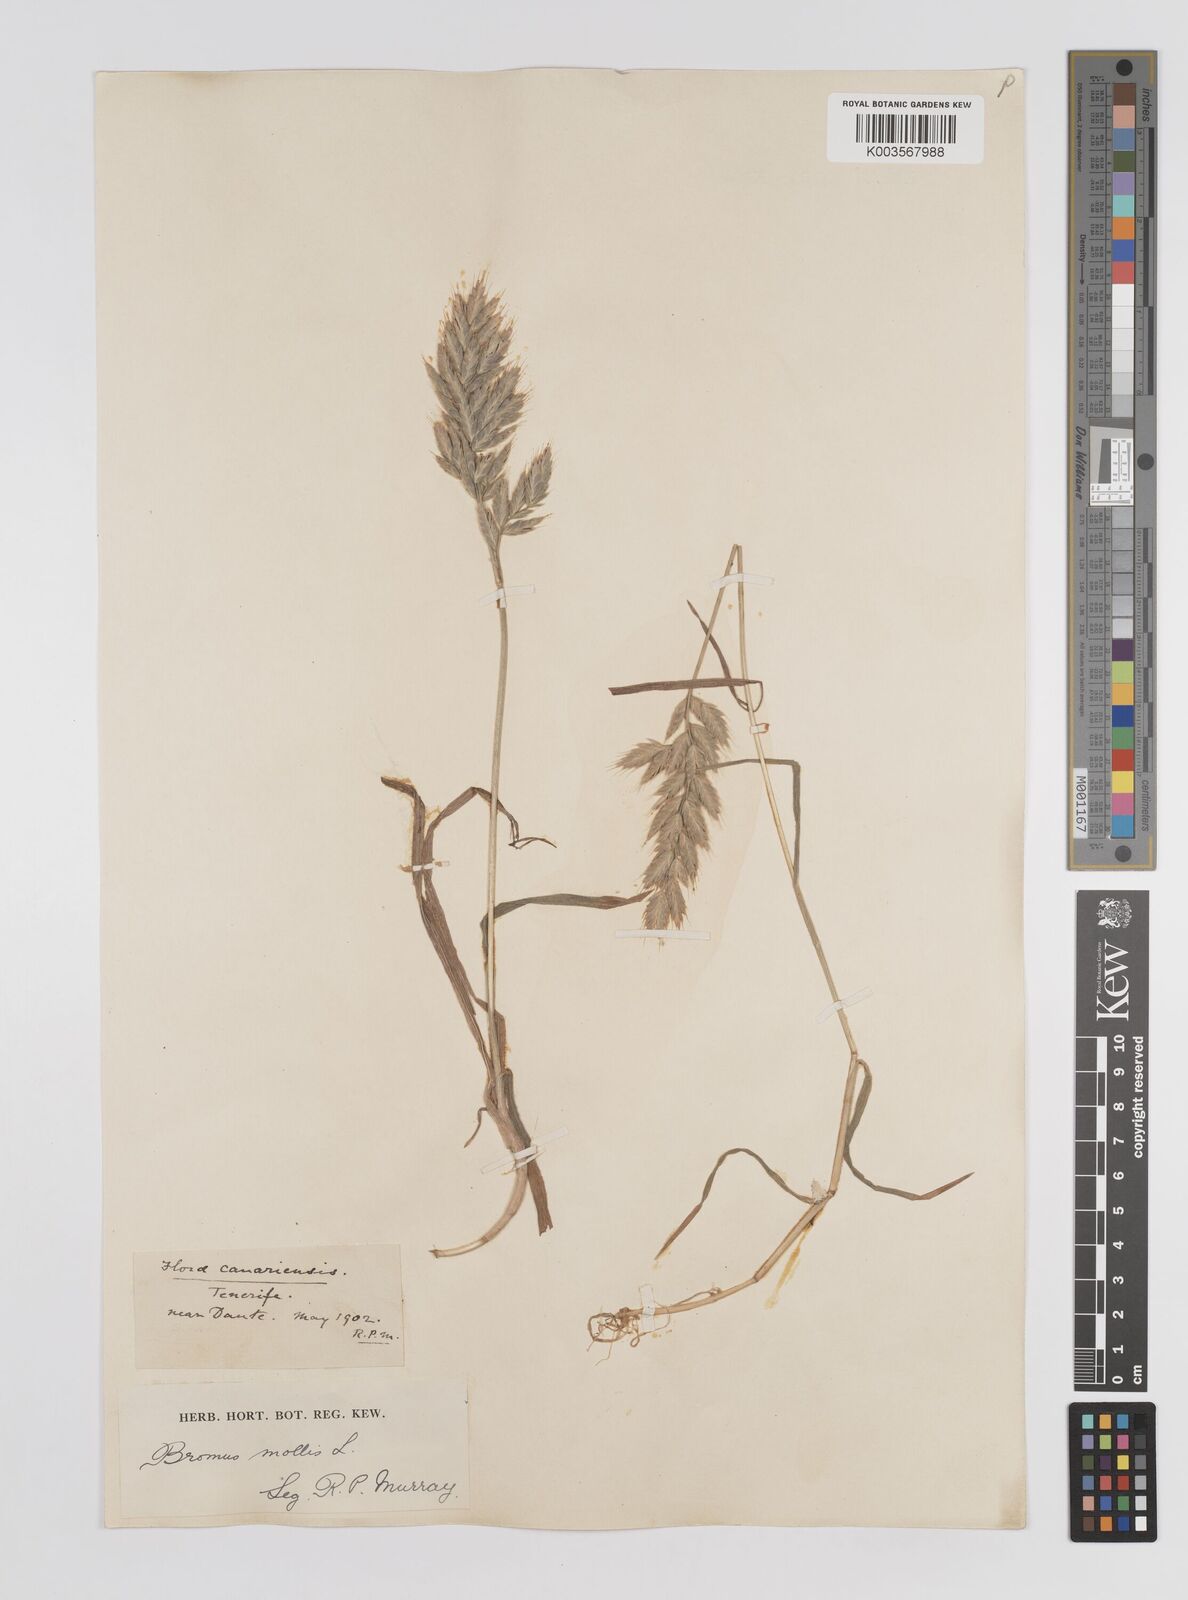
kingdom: Plantae
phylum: Tracheophyta
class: Liliopsida
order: Poales
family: Poaceae
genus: Bromus
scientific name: Bromus
